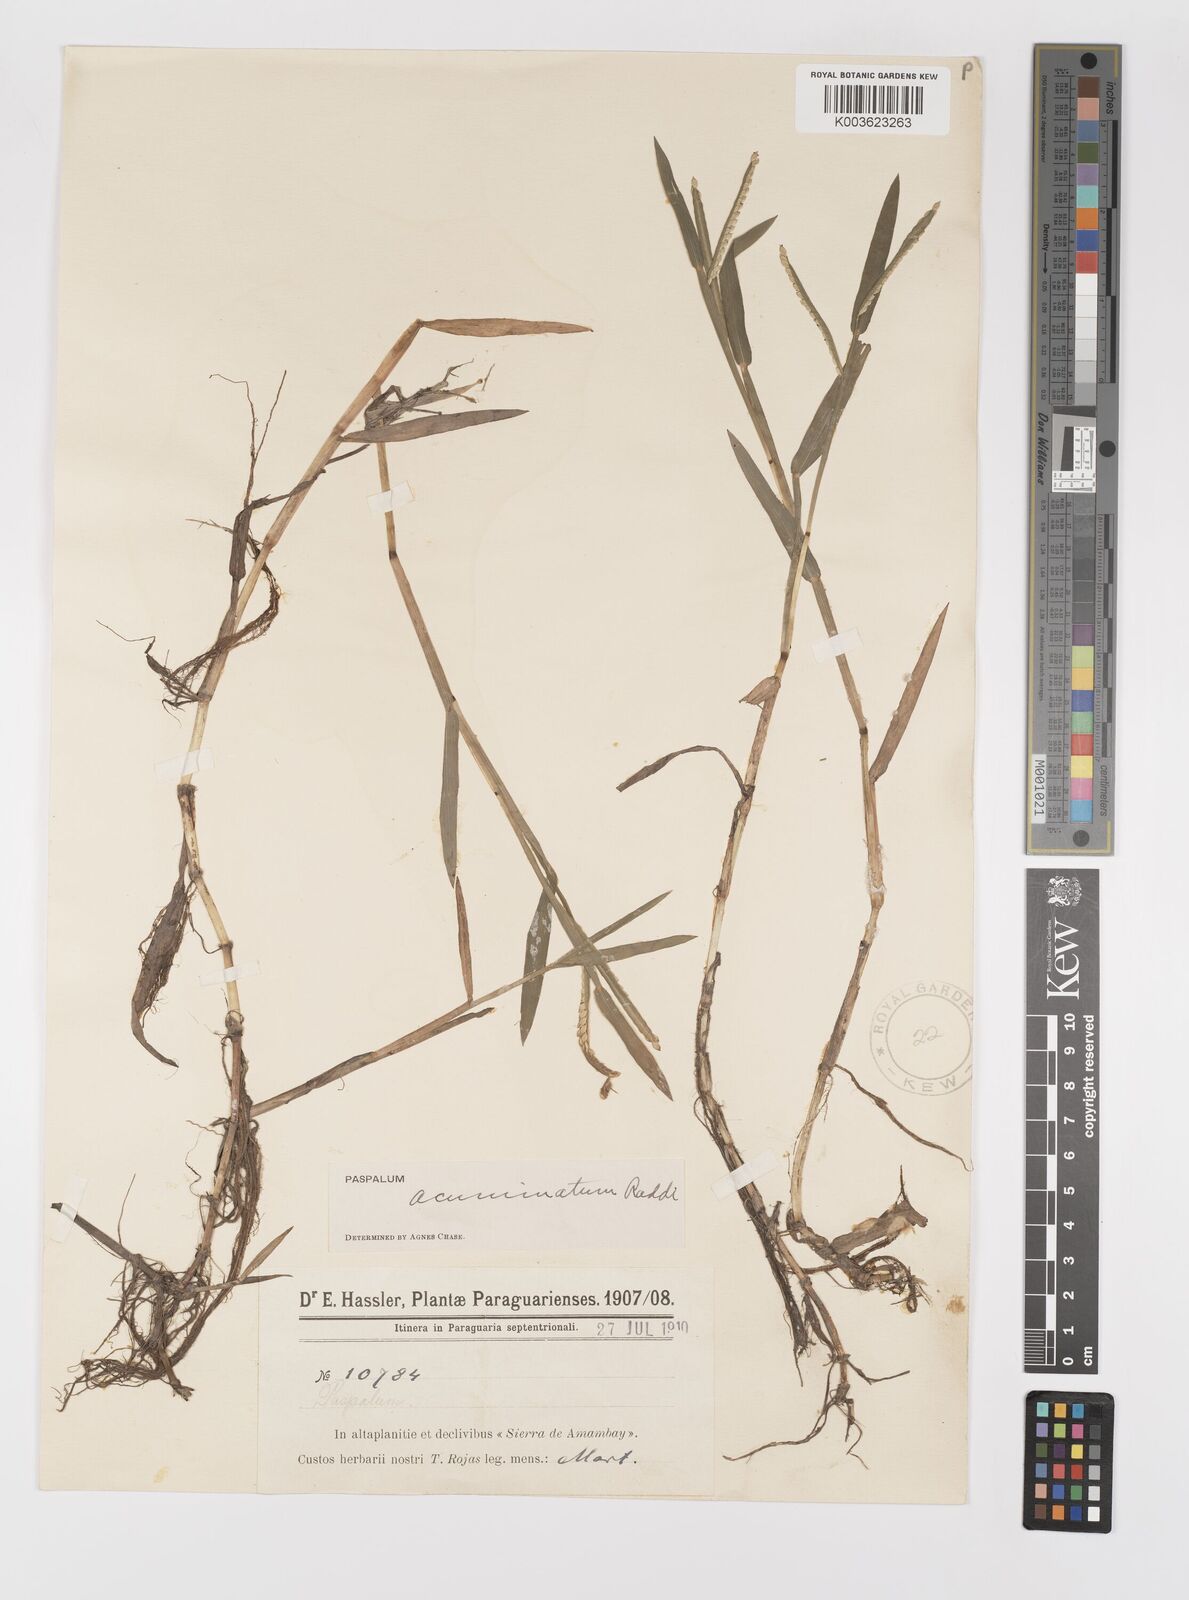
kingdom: Plantae
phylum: Tracheophyta
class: Liliopsida
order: Poales
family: Poaceae
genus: Paspalum
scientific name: Paspalum acuminatum
